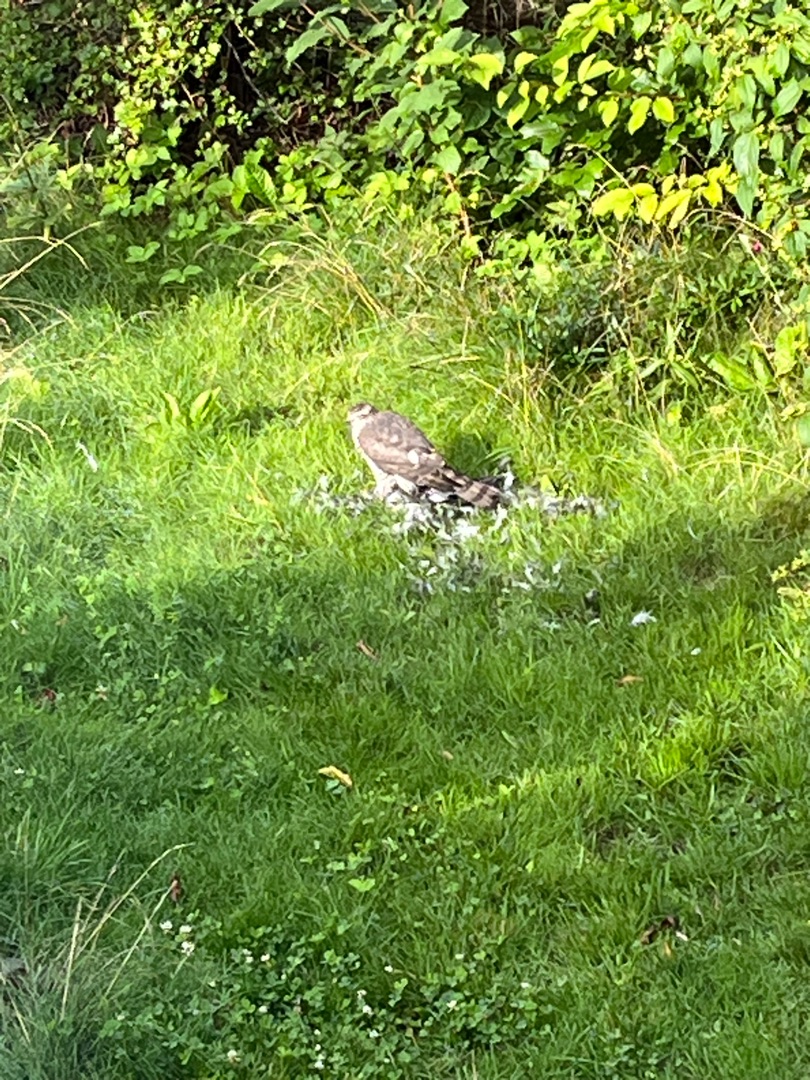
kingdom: Animalia
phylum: Chordata
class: Aves
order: Accipitriformes
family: Accipitridae
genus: Accipiter
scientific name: Accipiter nisus
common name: Spurvehøg
